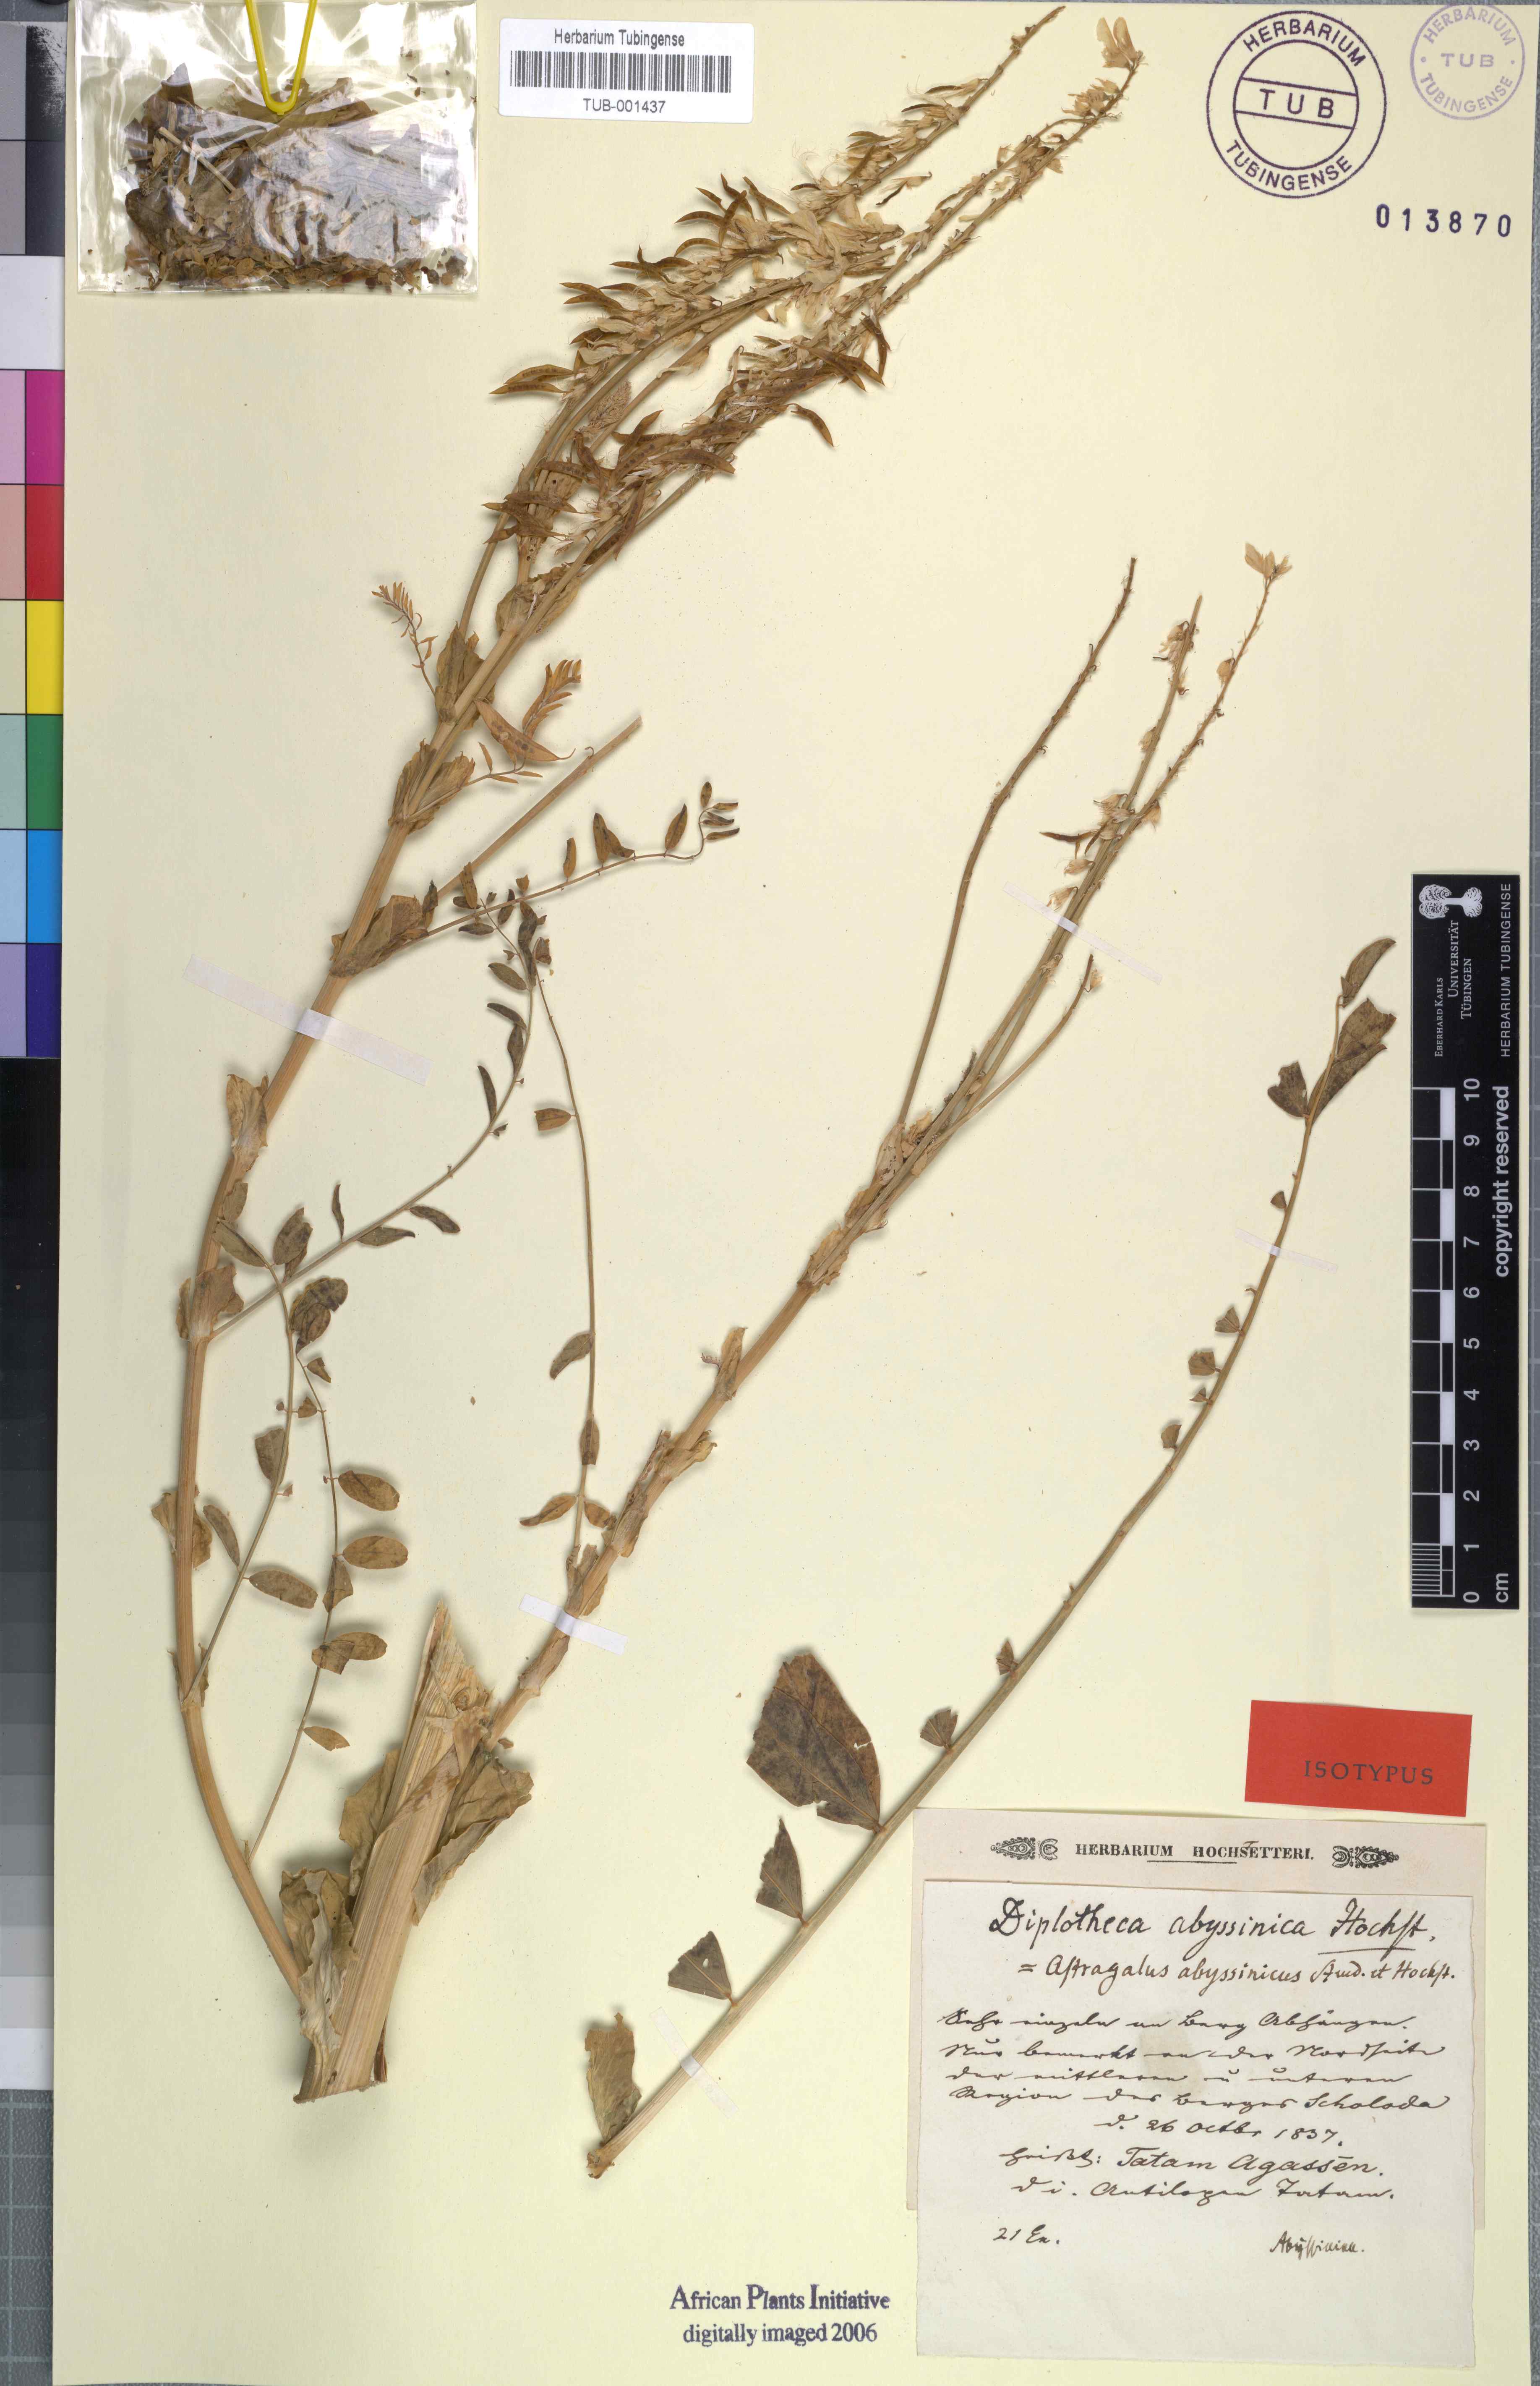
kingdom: Plantae
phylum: Tracheophyta
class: Magnoliopsida
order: Fabales
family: Fabaceae
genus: Astragalus
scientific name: Astragalus atropilosulus
